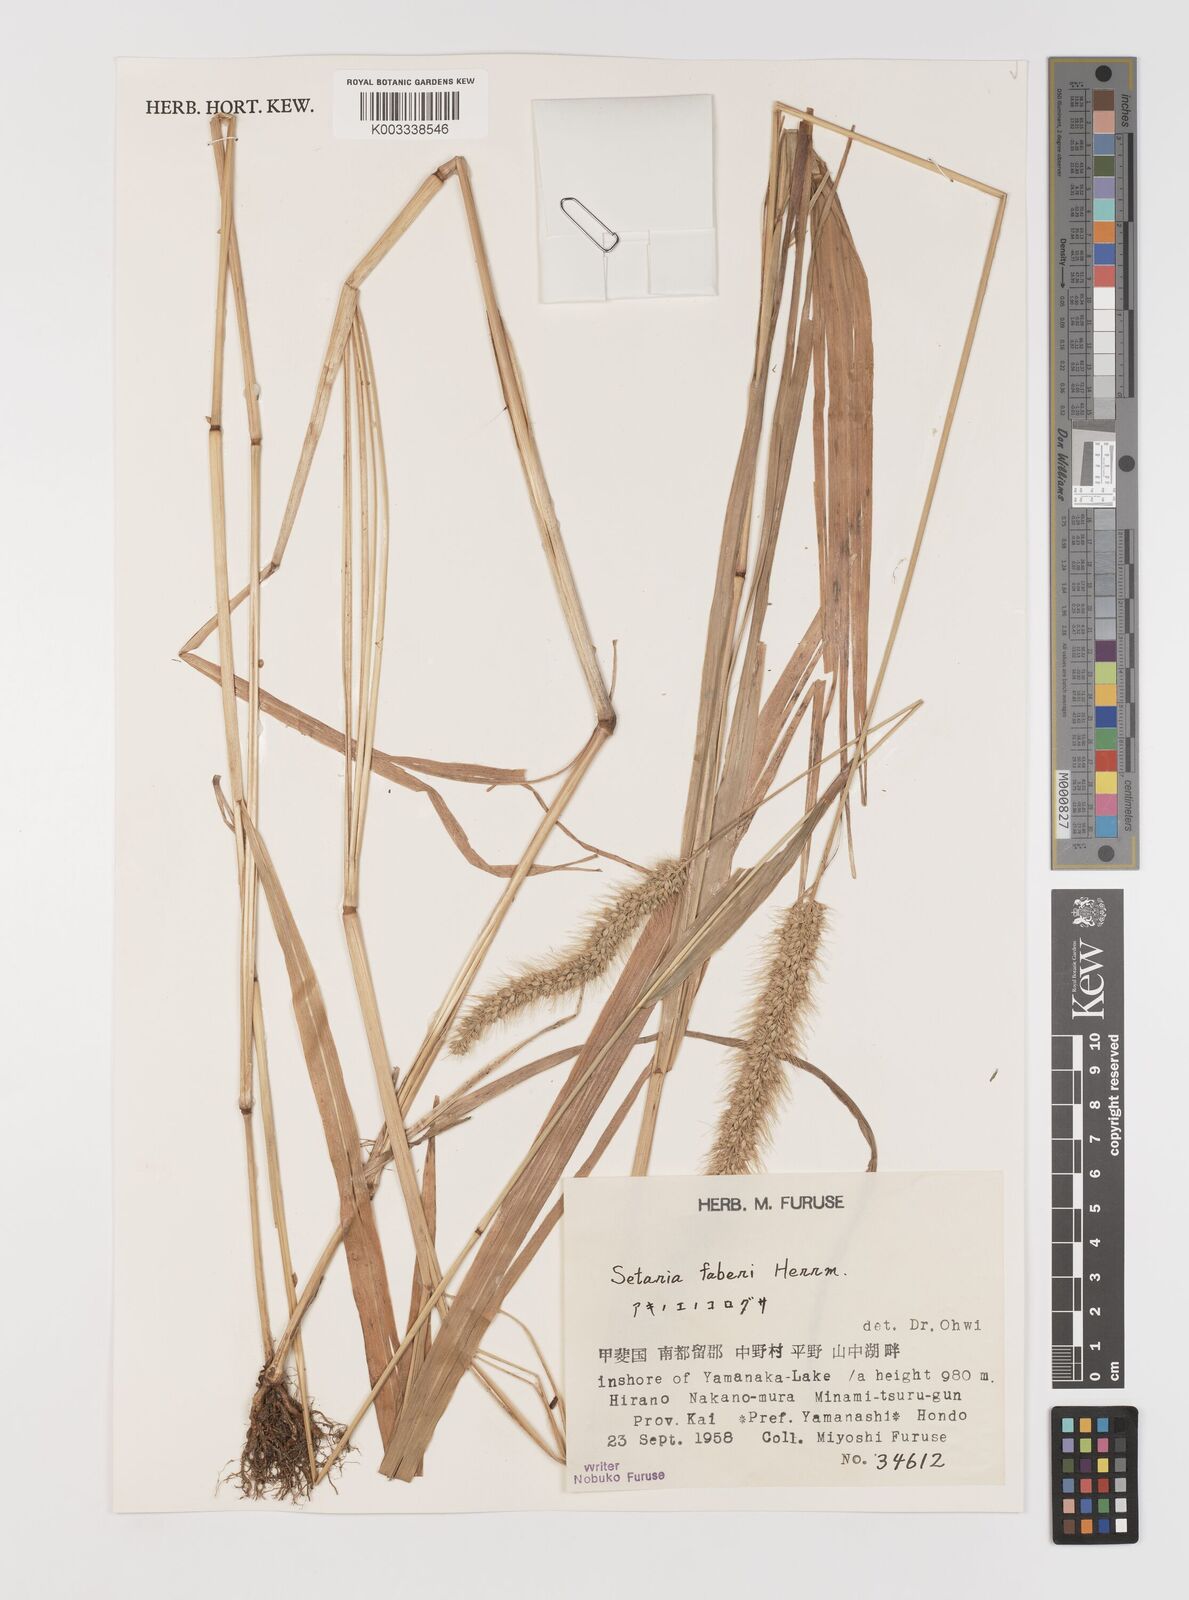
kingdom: Plantae
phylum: Tracheophyta
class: Liliopsida
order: Poales
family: Poaceae
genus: Setaria
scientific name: Setaria faberi
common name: Nodding bristle-grass
